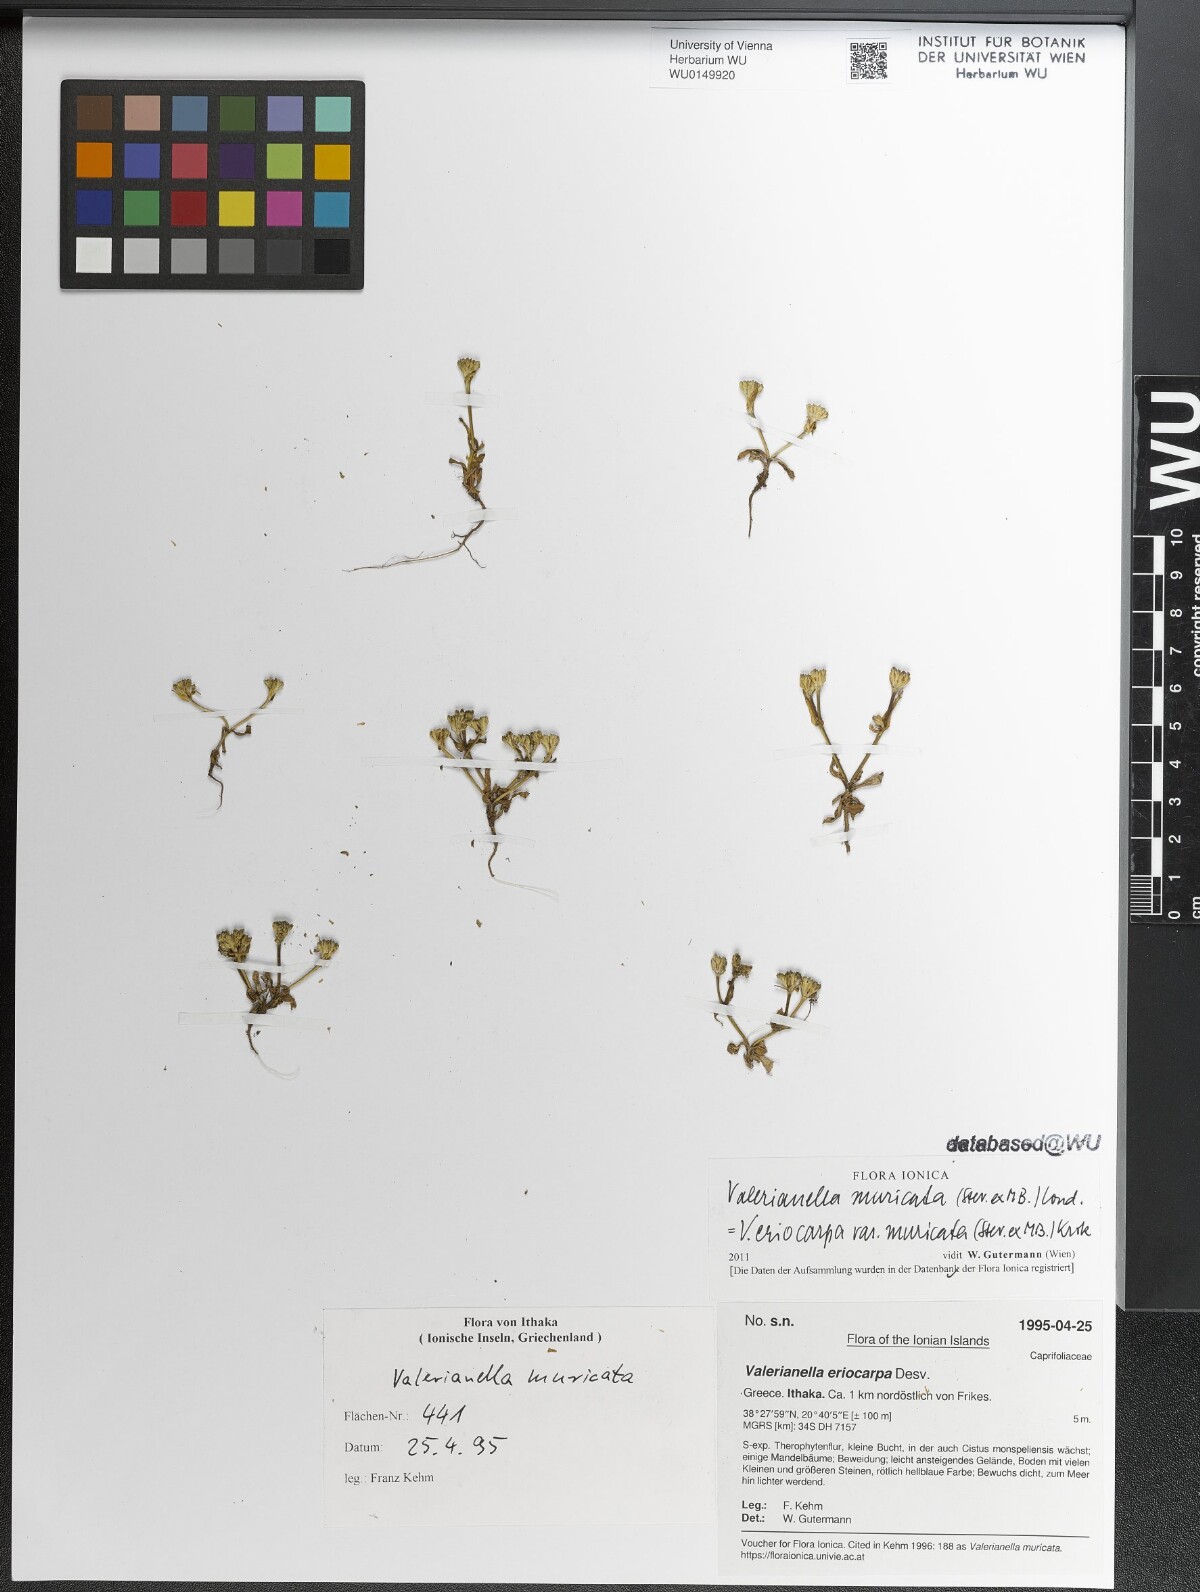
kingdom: Plantae
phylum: Tracheophyta
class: Magnoliopsida
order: Dipsacales
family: Caprifoliaceae
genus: Valerianella
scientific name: Valerianella eriocarpa
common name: Hairy-fruited cornsalad
